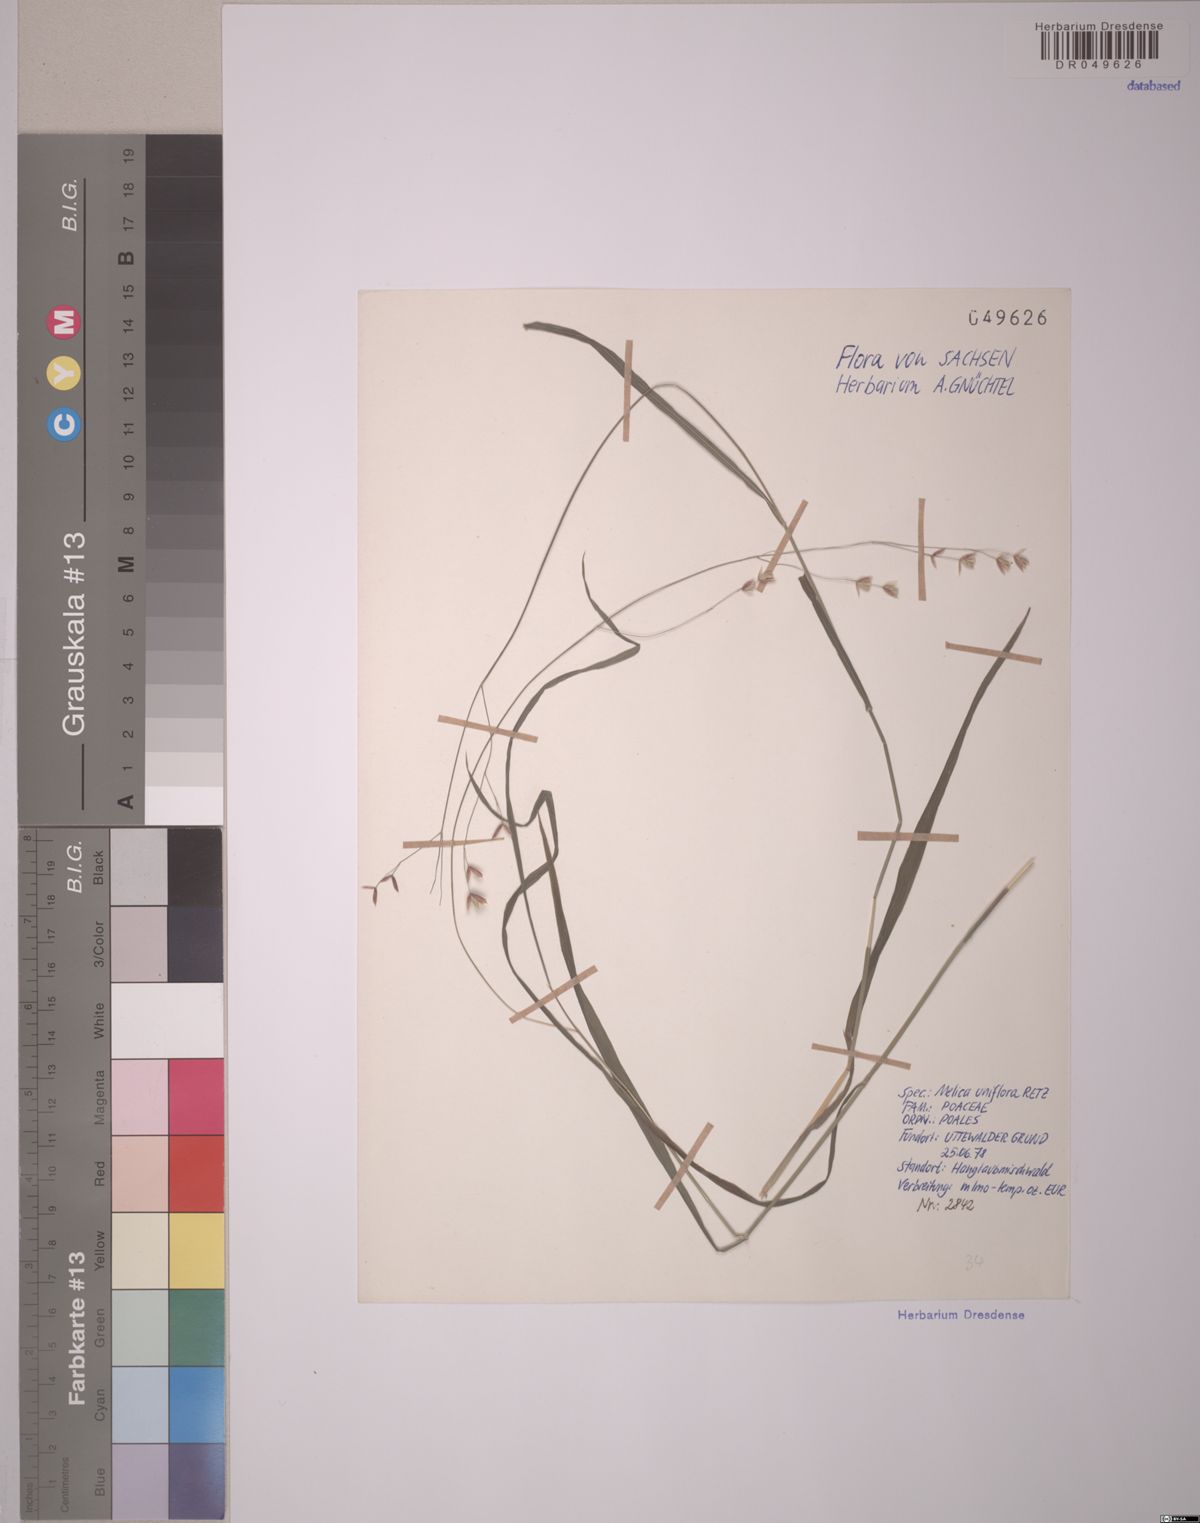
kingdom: Plantae
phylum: Tracheophyta
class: Liliopsida
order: Poales
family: Poaceae
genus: Melica
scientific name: Melica uniflora
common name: Wood melick
